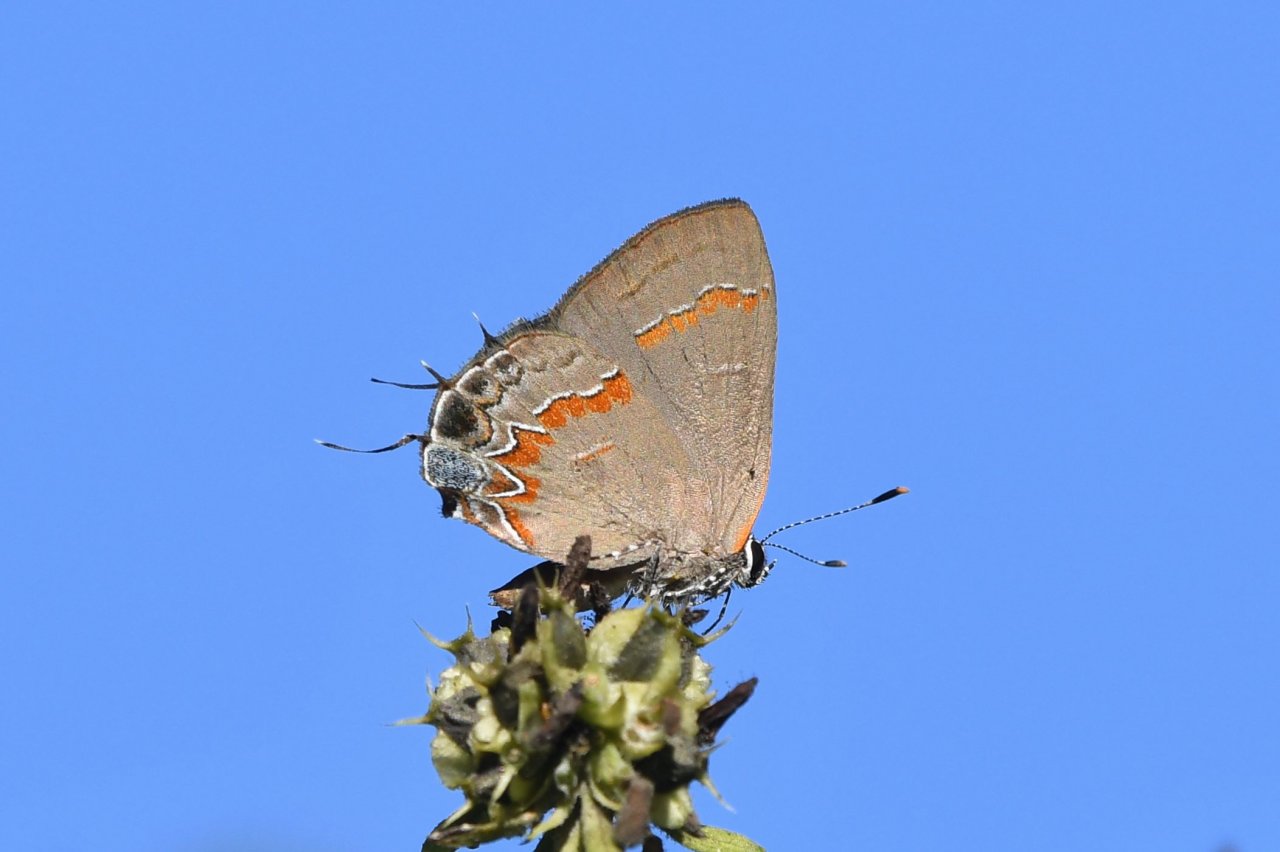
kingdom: Animalia
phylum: Arthropoda
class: Insecta
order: Lepidoptera
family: Lycaenidae
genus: Calycopis
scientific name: Calycopis cecrops
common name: Red-banded Hairstreak
